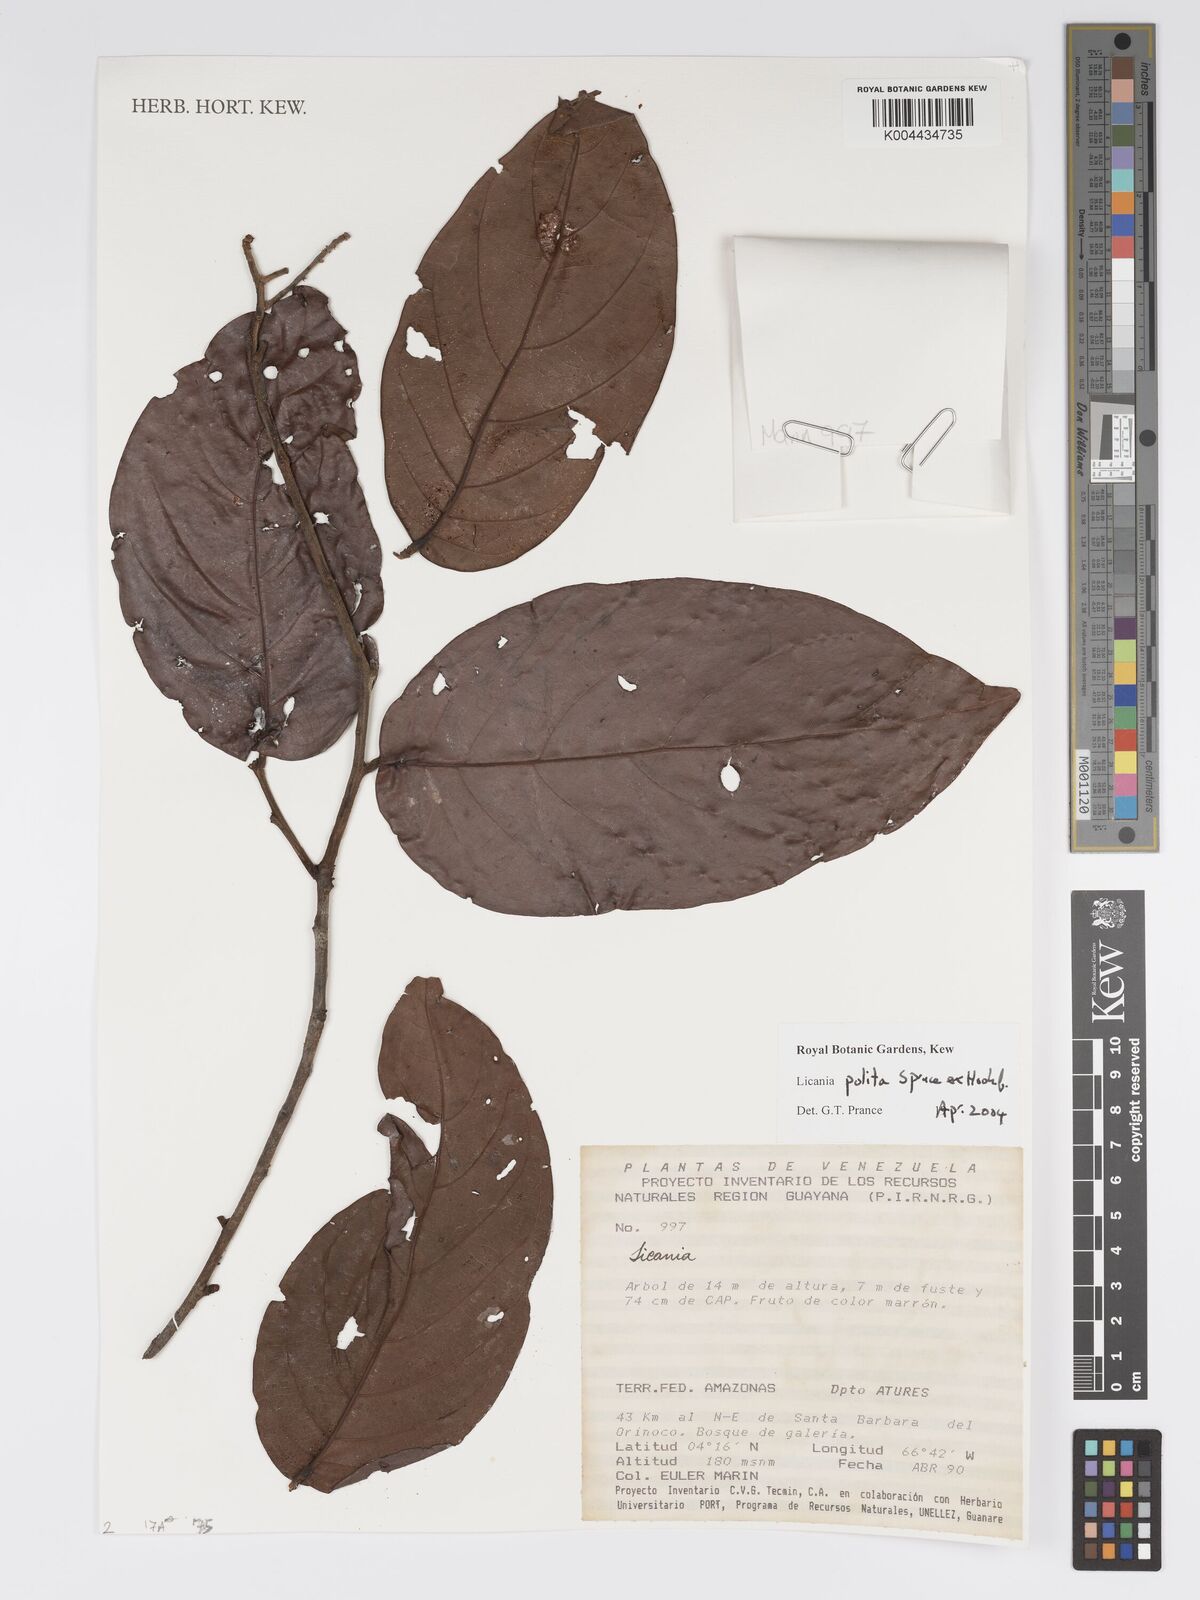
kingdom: Plantae
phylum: Tracheophyta
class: Magnoliopsida
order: Malpighiales
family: Chrysobalanaceae
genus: Licania
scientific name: Licania polita
